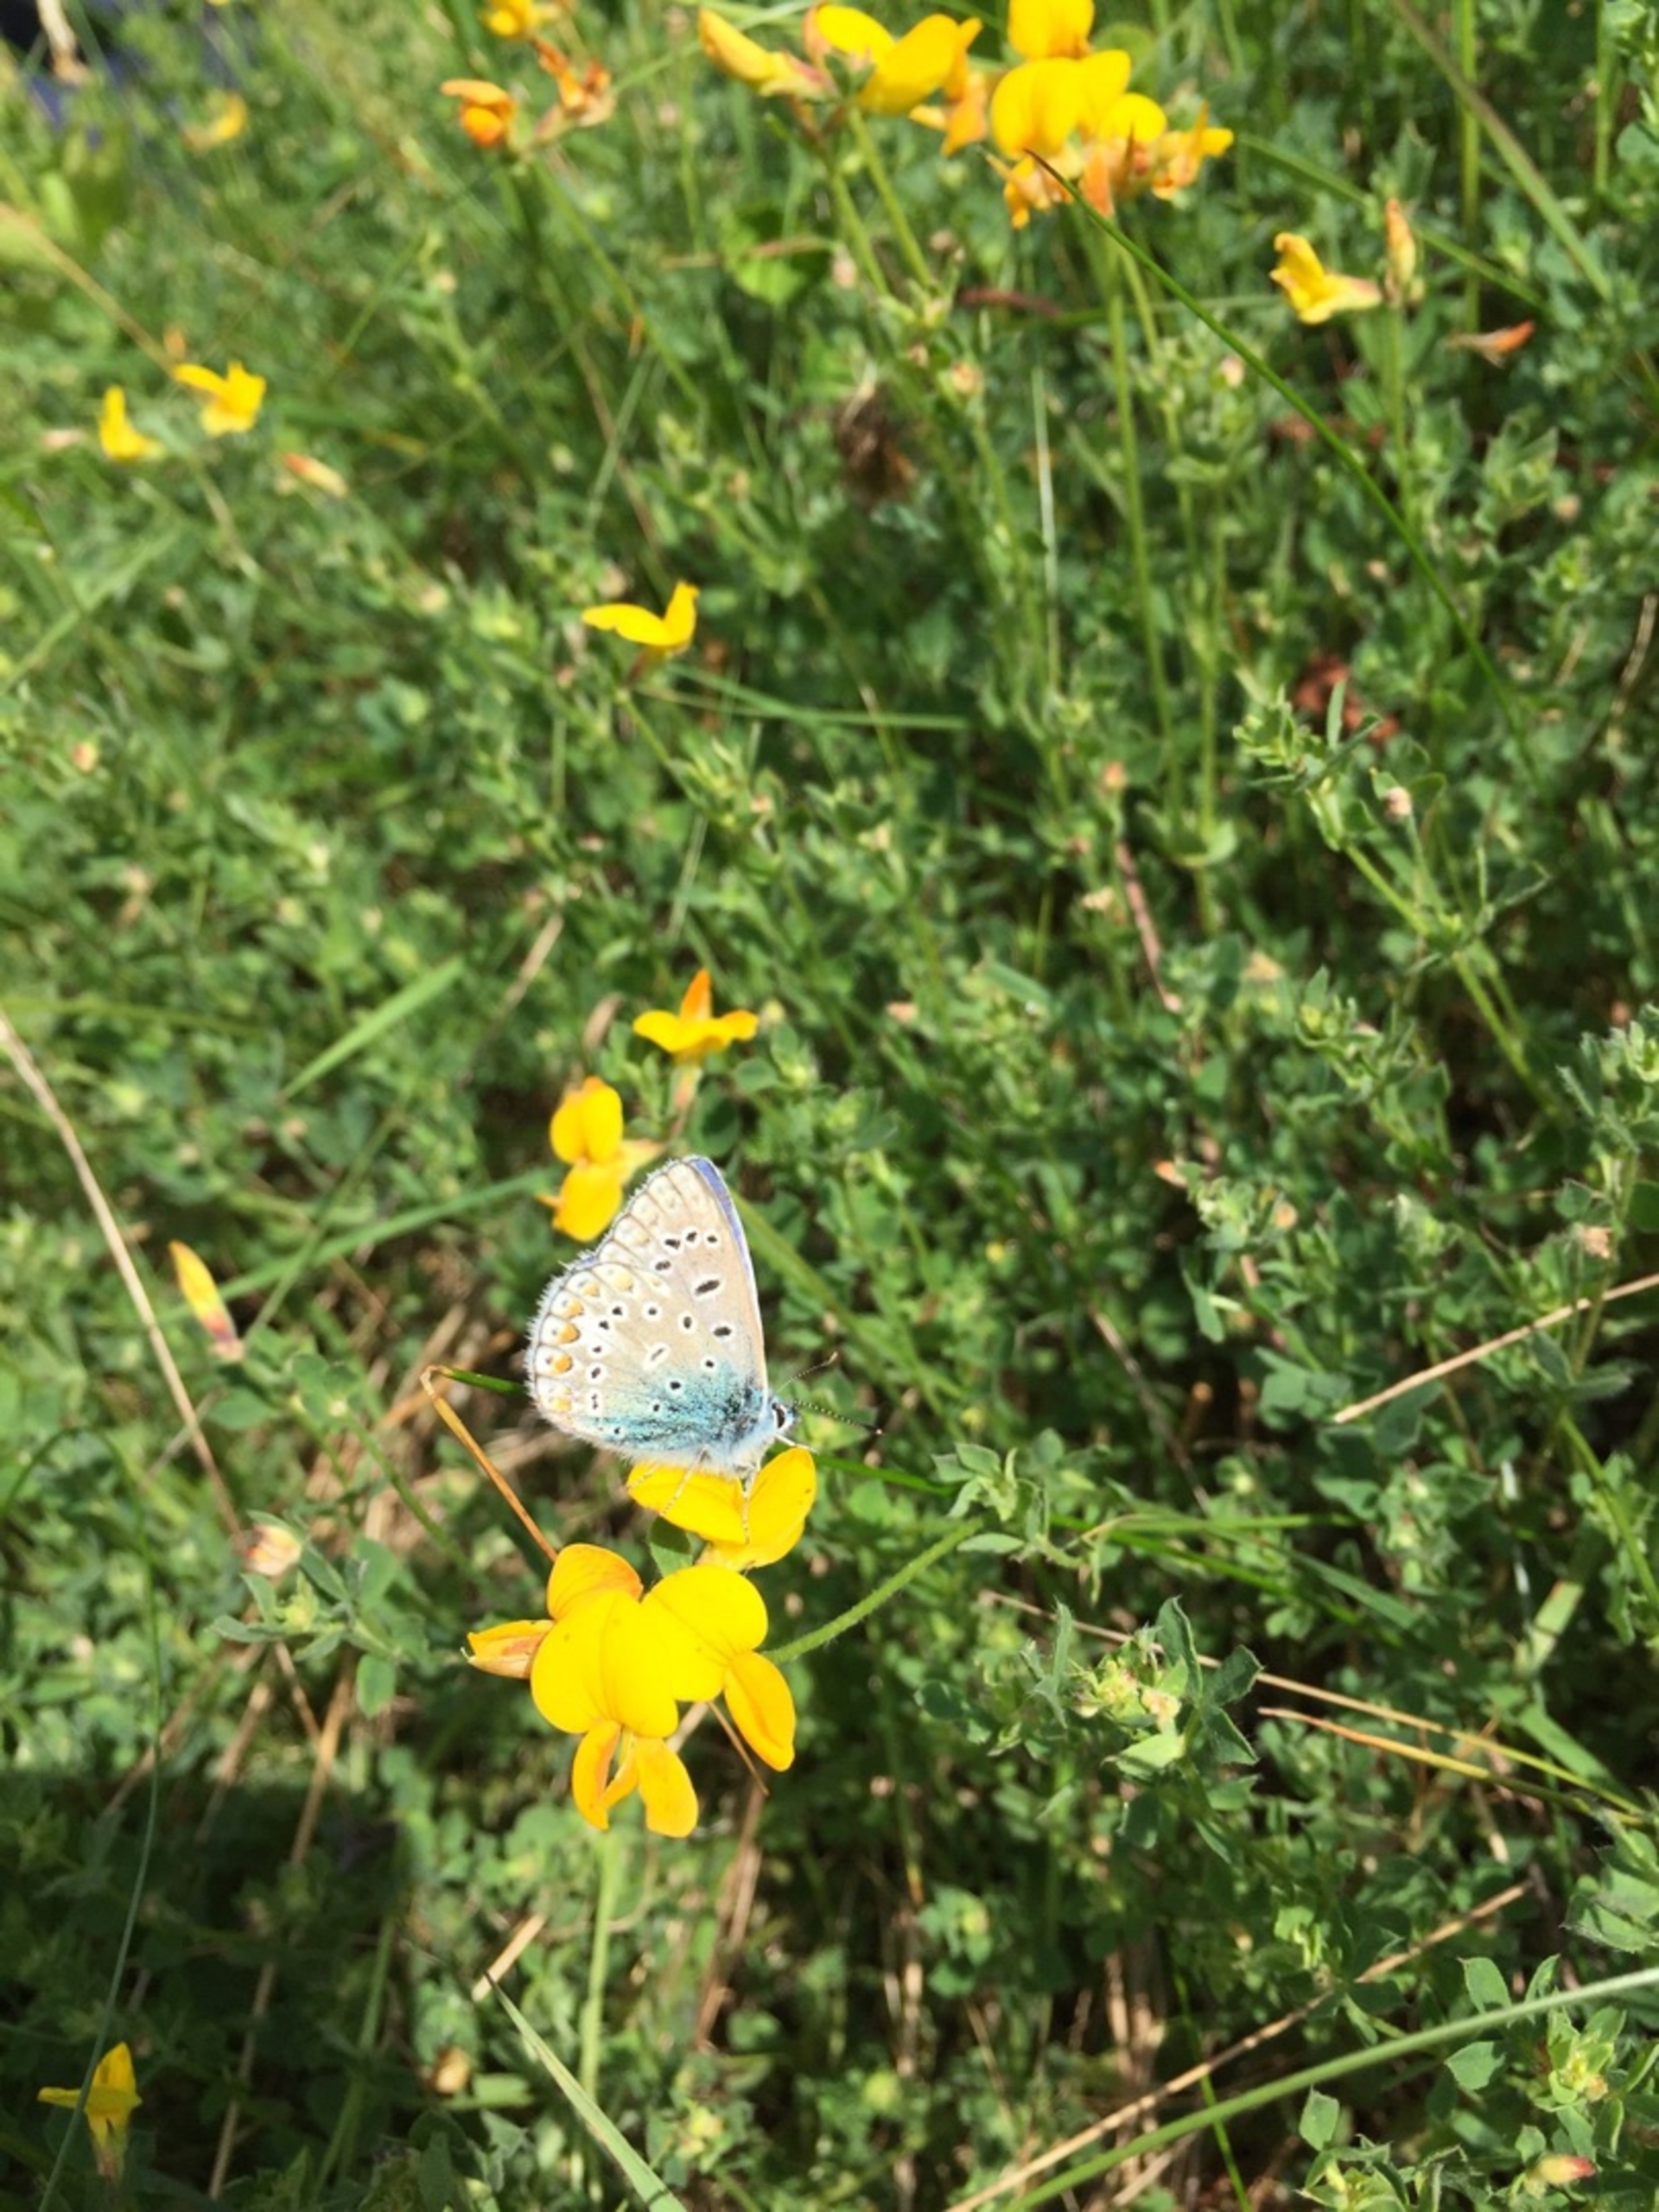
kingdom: Animalia
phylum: Arthropoda
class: Insecta
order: Lepidoptera
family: Lycaenidae
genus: Polyommatus
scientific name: Polyommatus icarus
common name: Almindelig blåfugl
